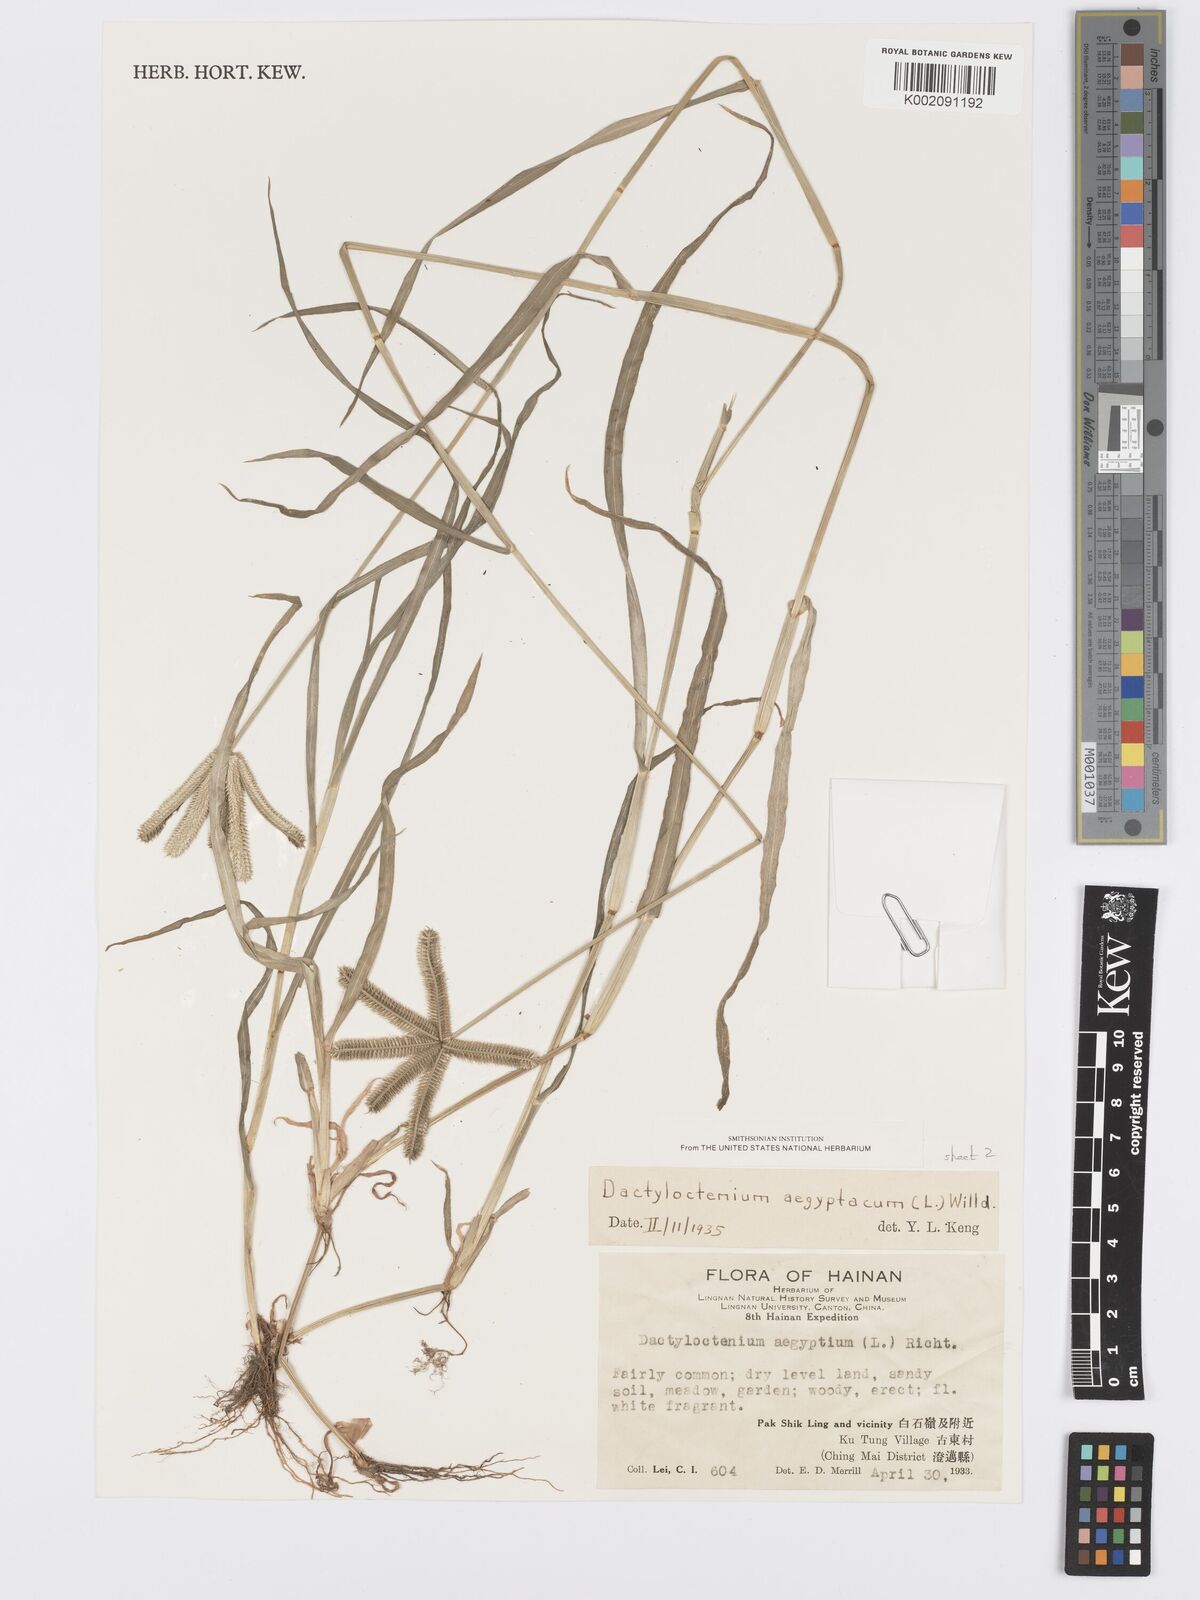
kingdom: Plantae
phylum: Tracheophyta
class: Liliopsida
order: Poales
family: Poaceae
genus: Dactyloctenium
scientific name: Dactyloctenium aegyptium
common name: Egyptian grass
